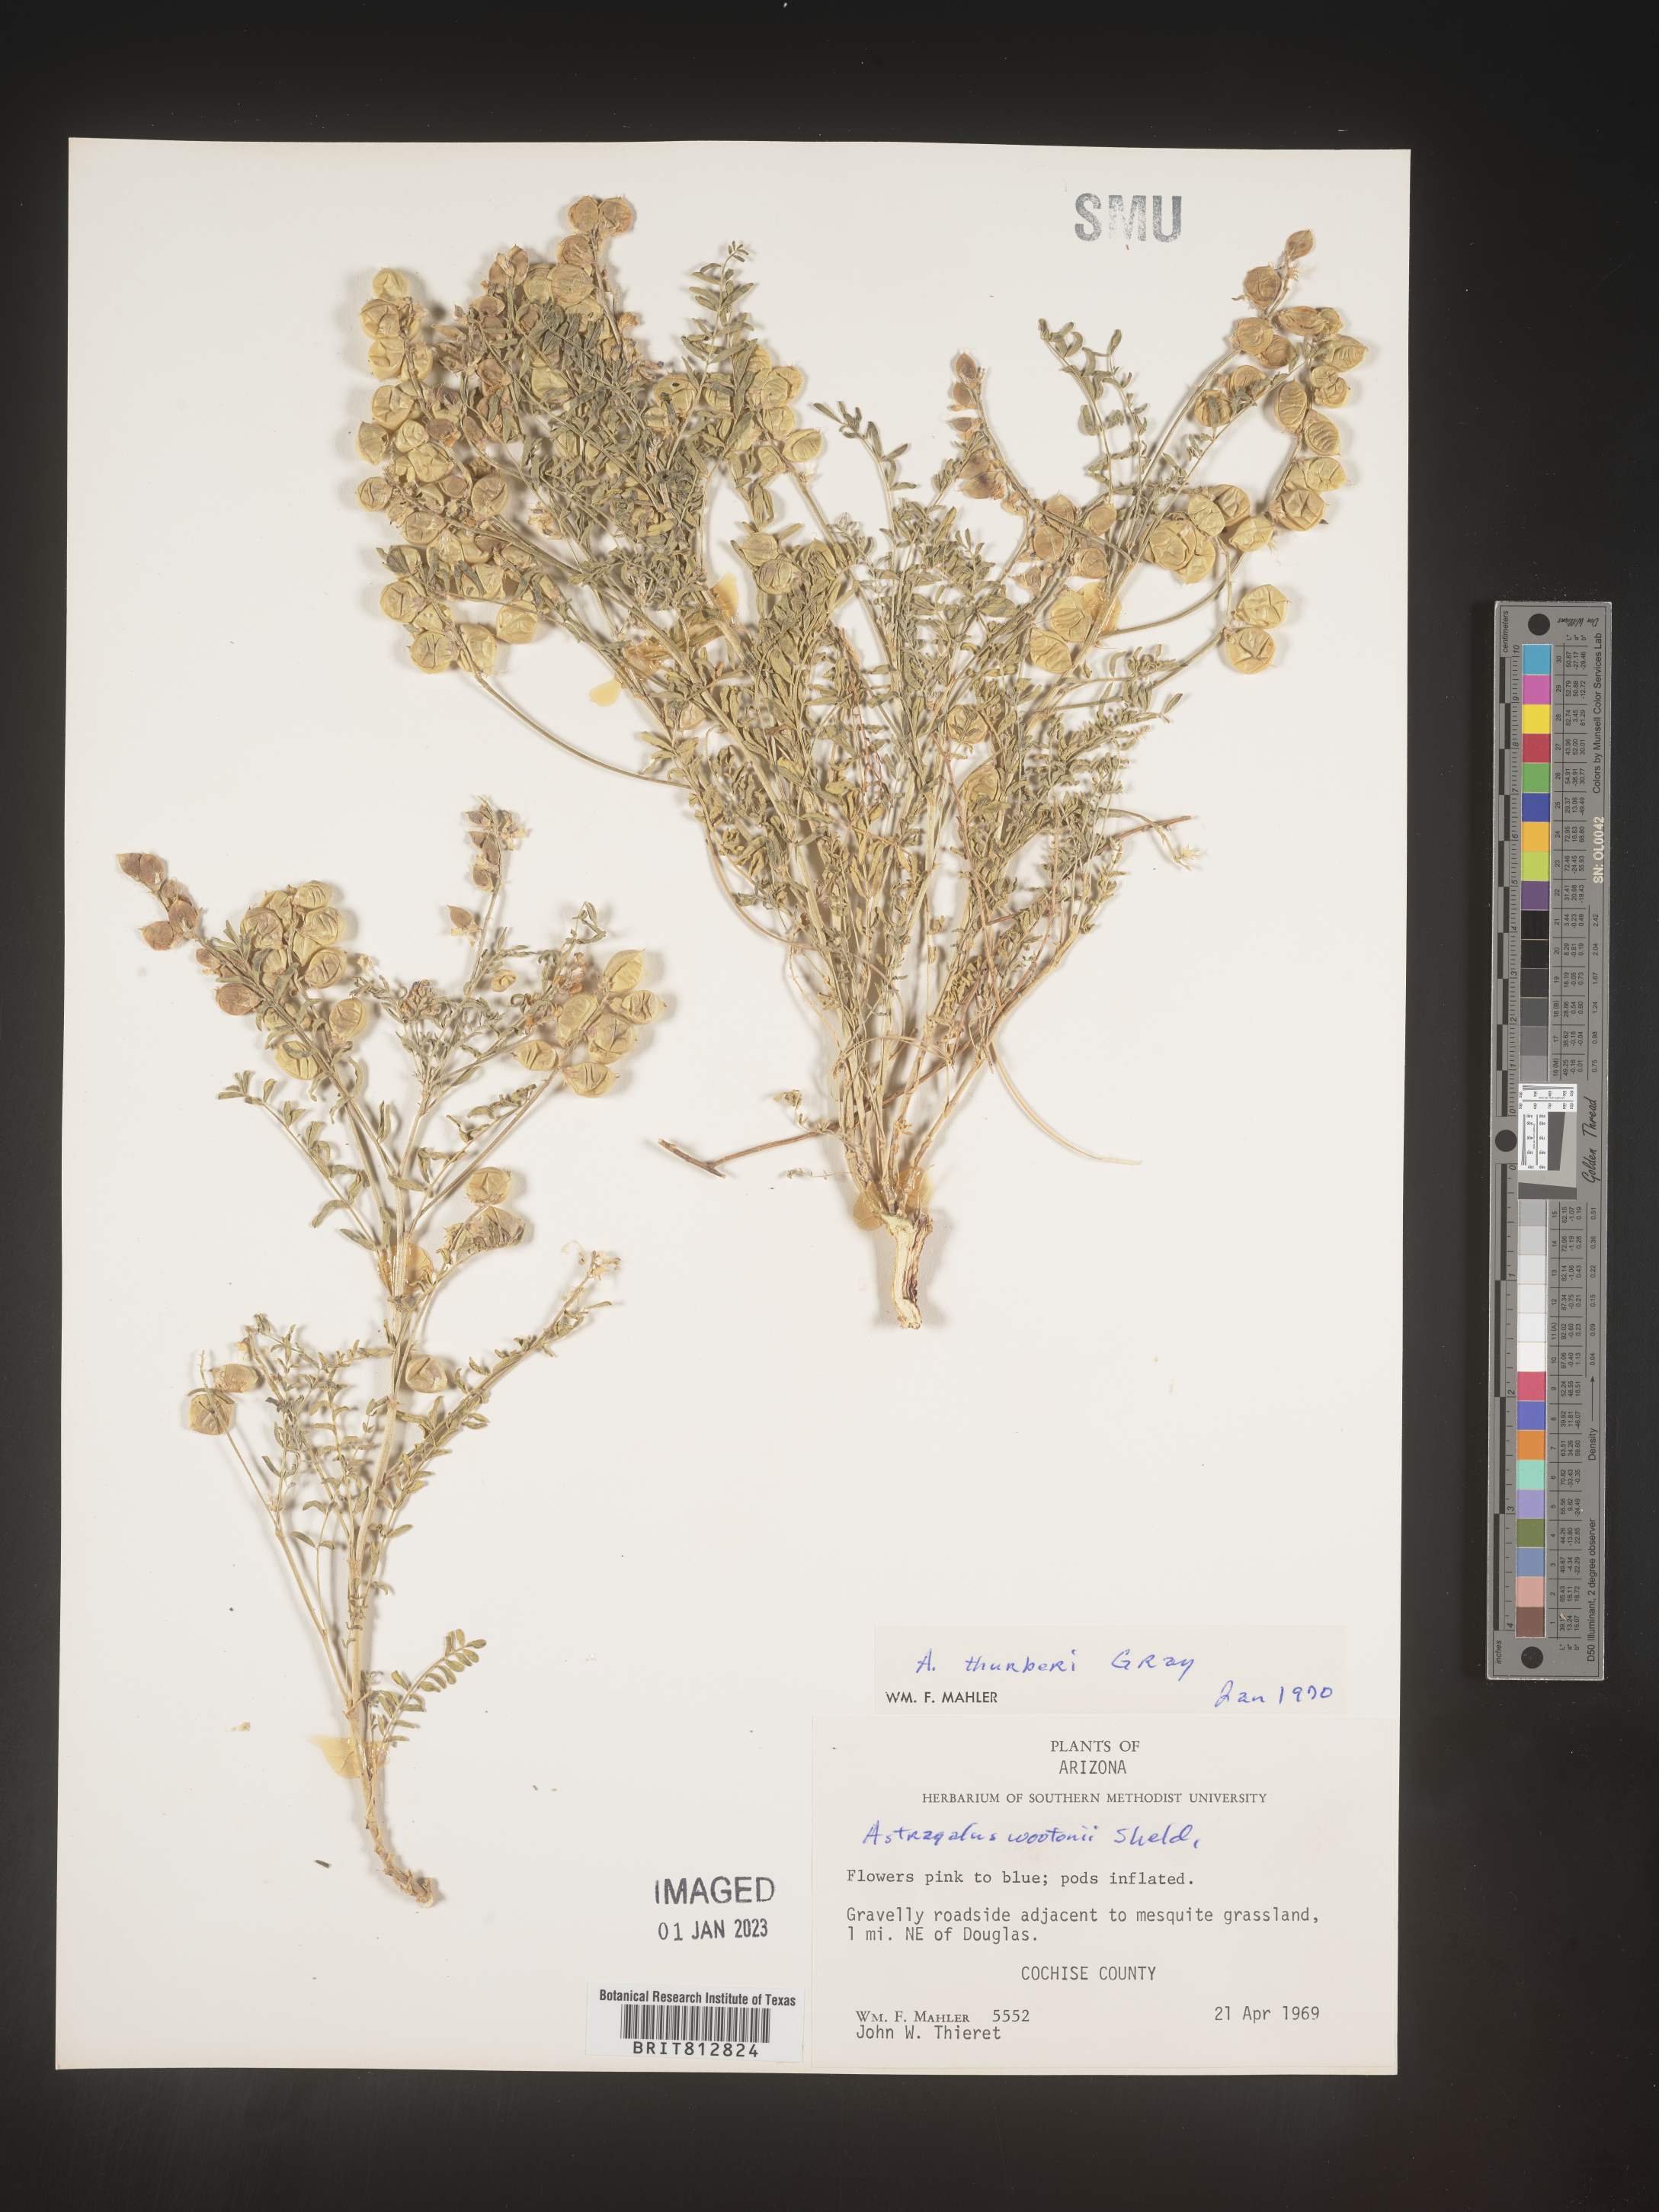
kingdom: Plantae
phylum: Tracheophyta
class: Magnoliopsida
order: Fabales
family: Fabaceae
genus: Astragalus
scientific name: Astragalus
